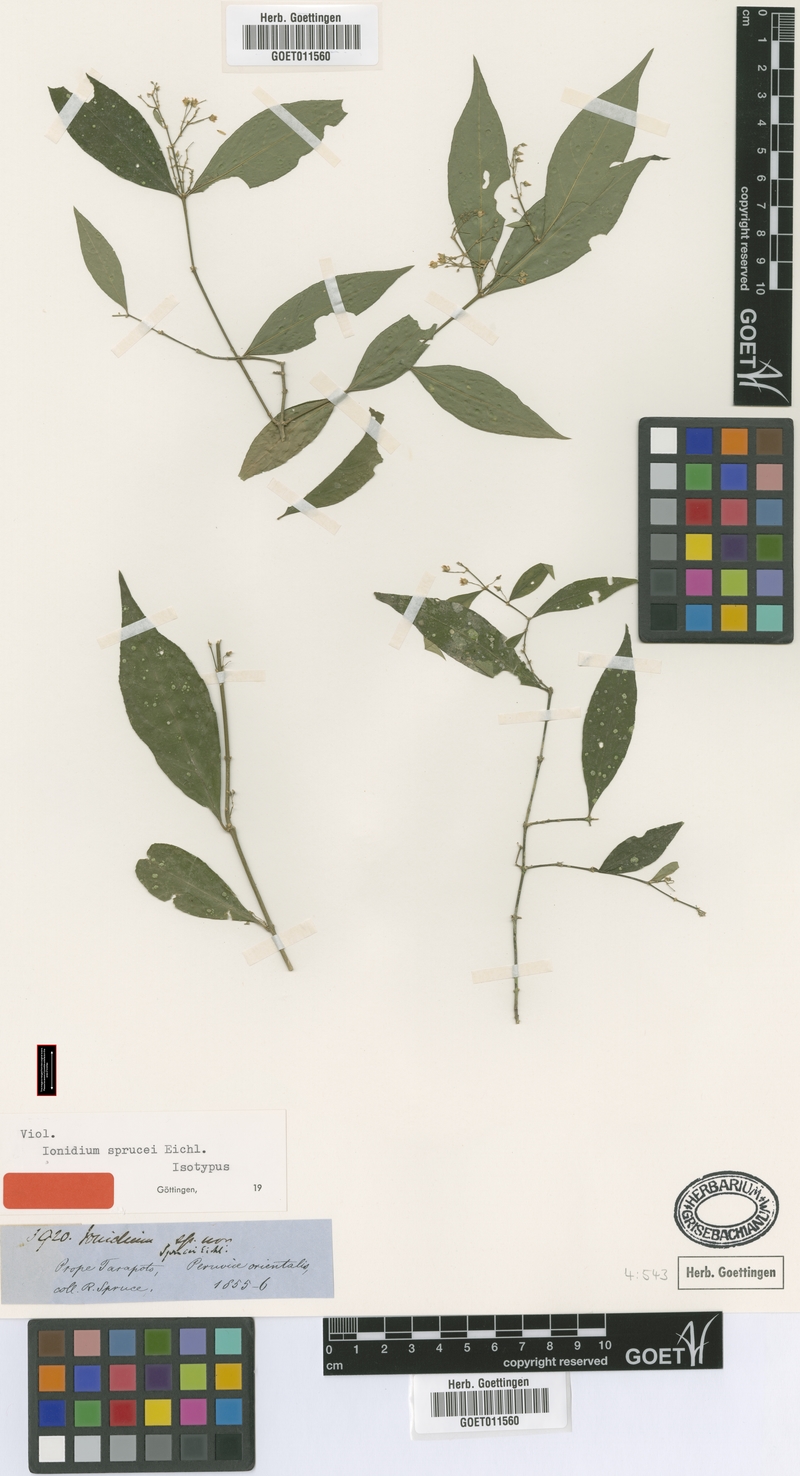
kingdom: Plantae
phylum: Tracheophyta
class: Magnoliopsida
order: Malpighiales
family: Violaceae
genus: Pombalia
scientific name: Pombalia sprucei
